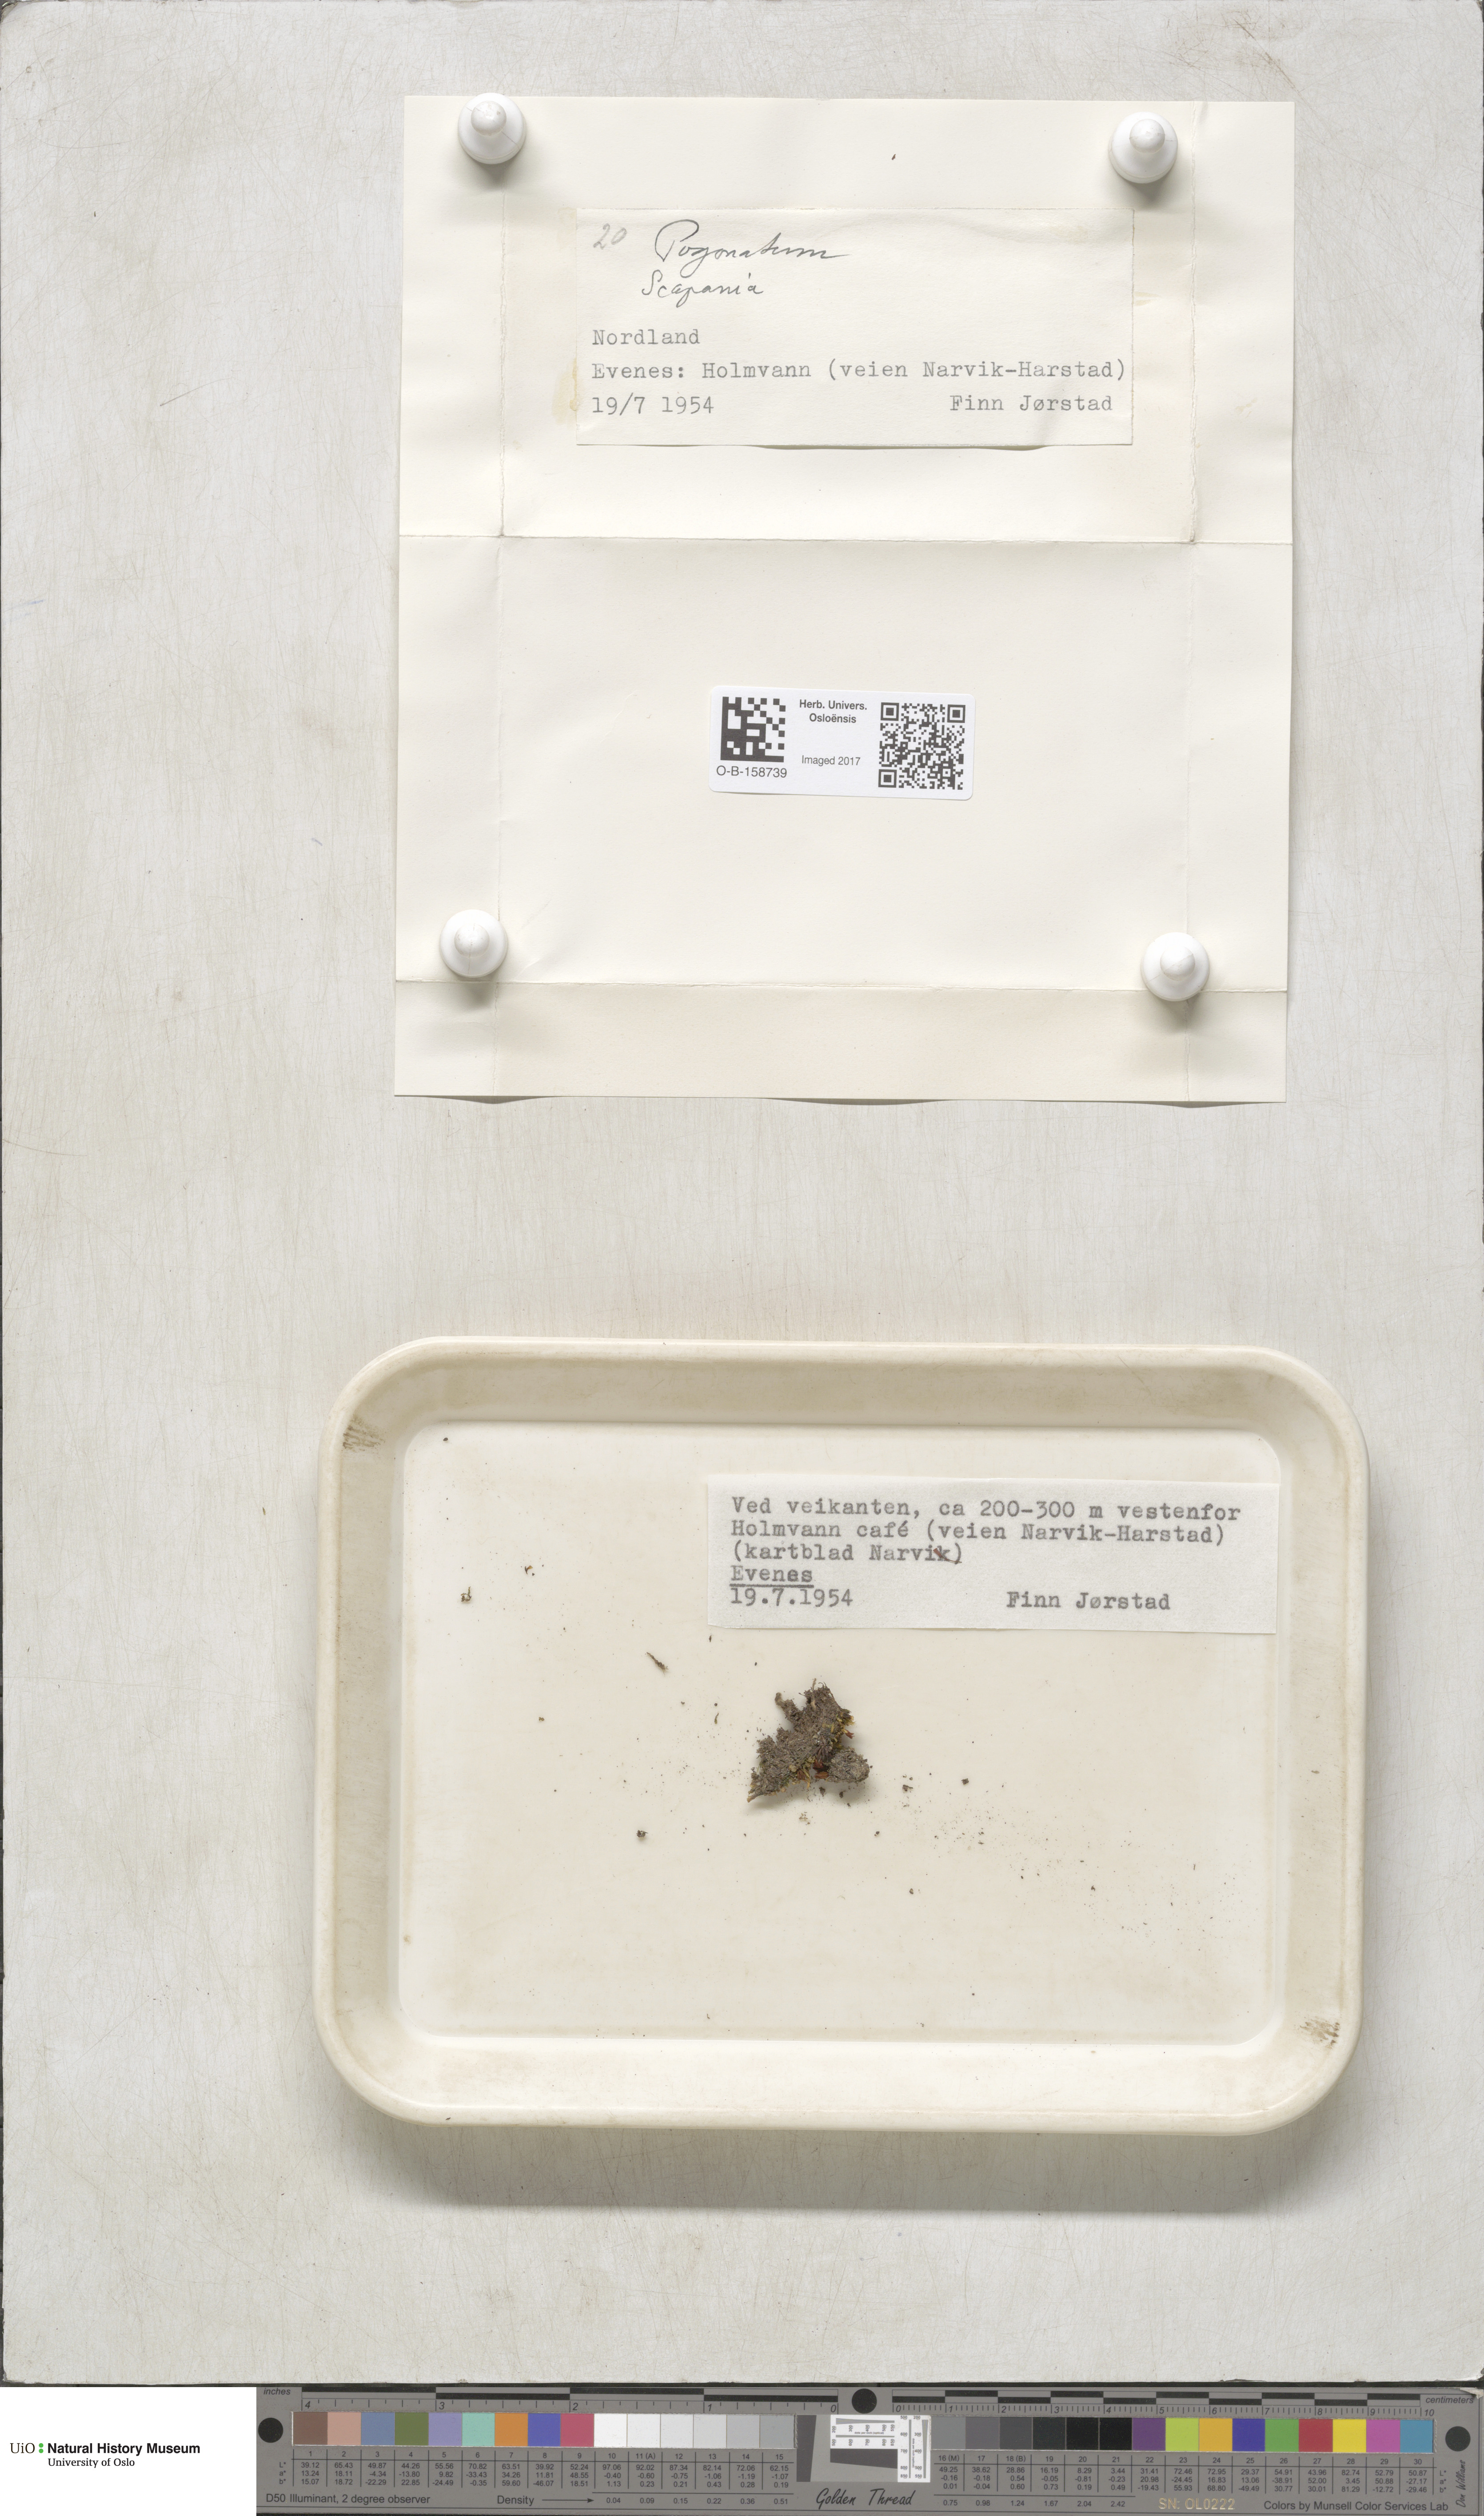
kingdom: Plantae
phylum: Bryophyta
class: Polytrichopsida
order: Polytrichales
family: Polytrichaceae
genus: Pogonatum
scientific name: Pogonatum
